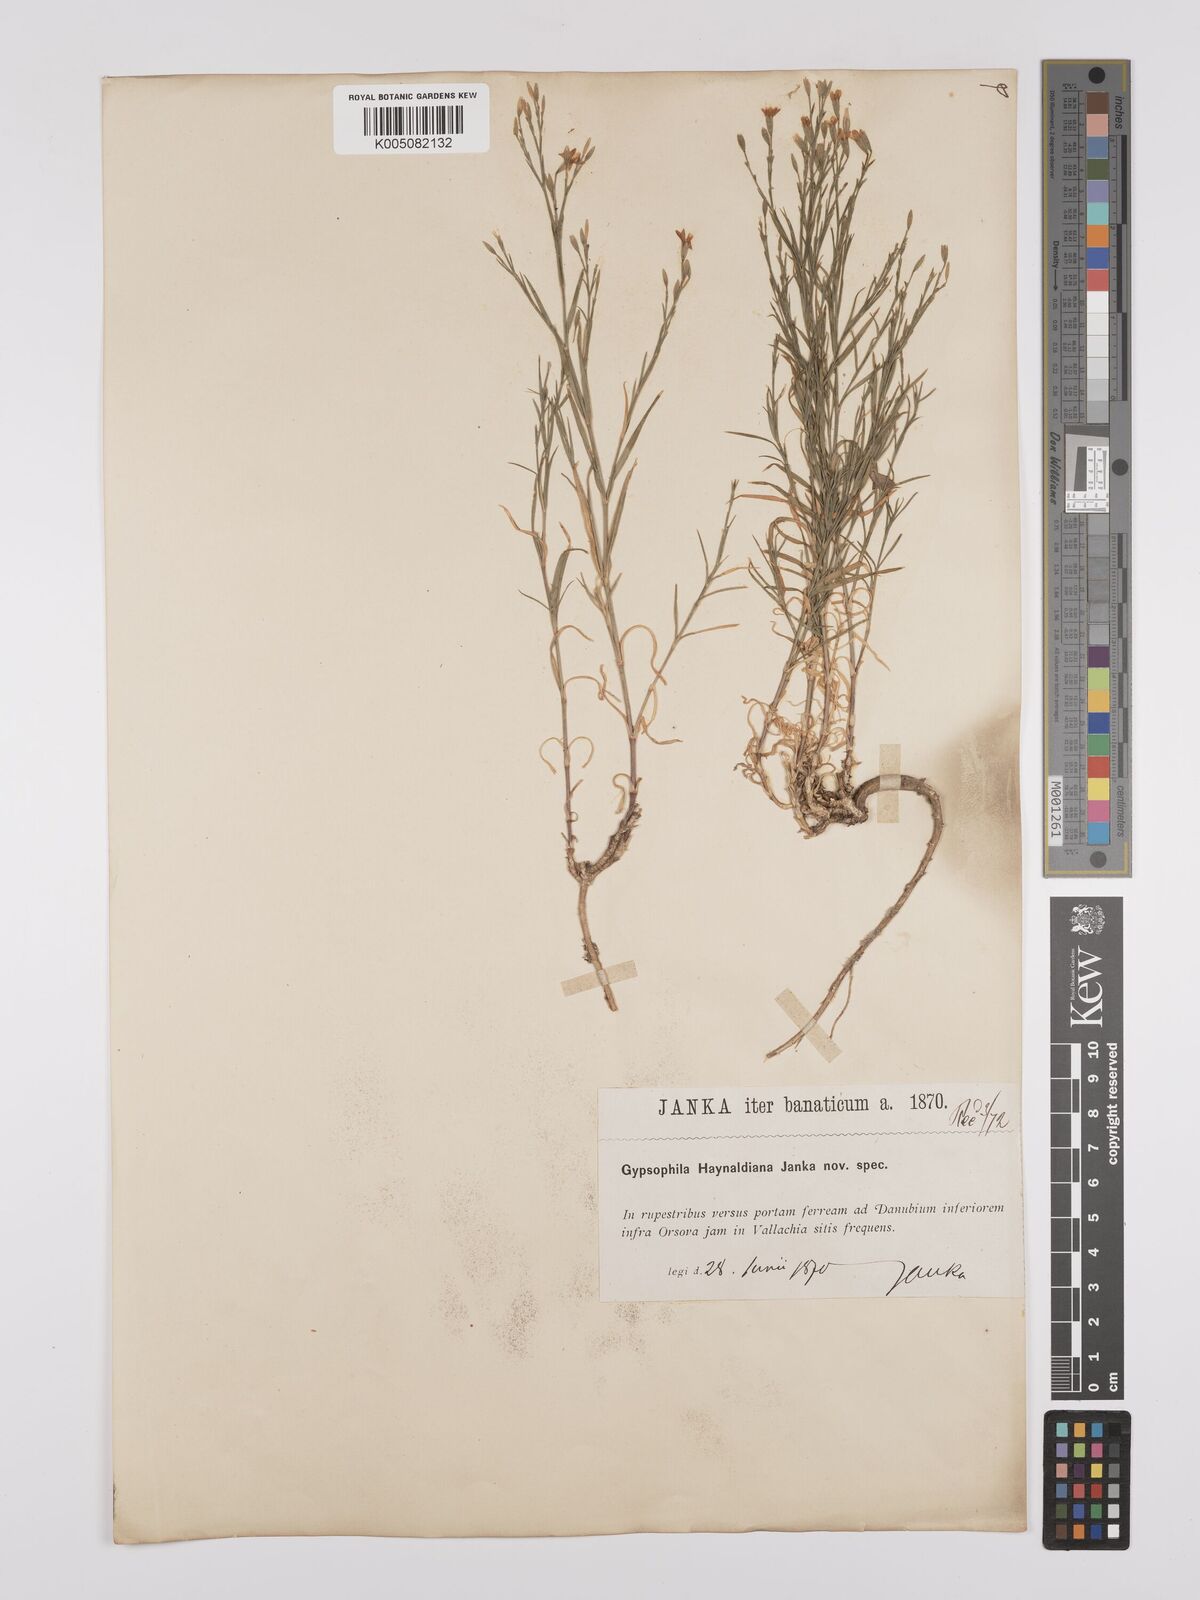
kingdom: Plantae
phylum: Tracheophyta
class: Magnoliopsida
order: Caryophyllales
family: Caryophyllaceae
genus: Dianthus
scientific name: Dianthus illyricus
